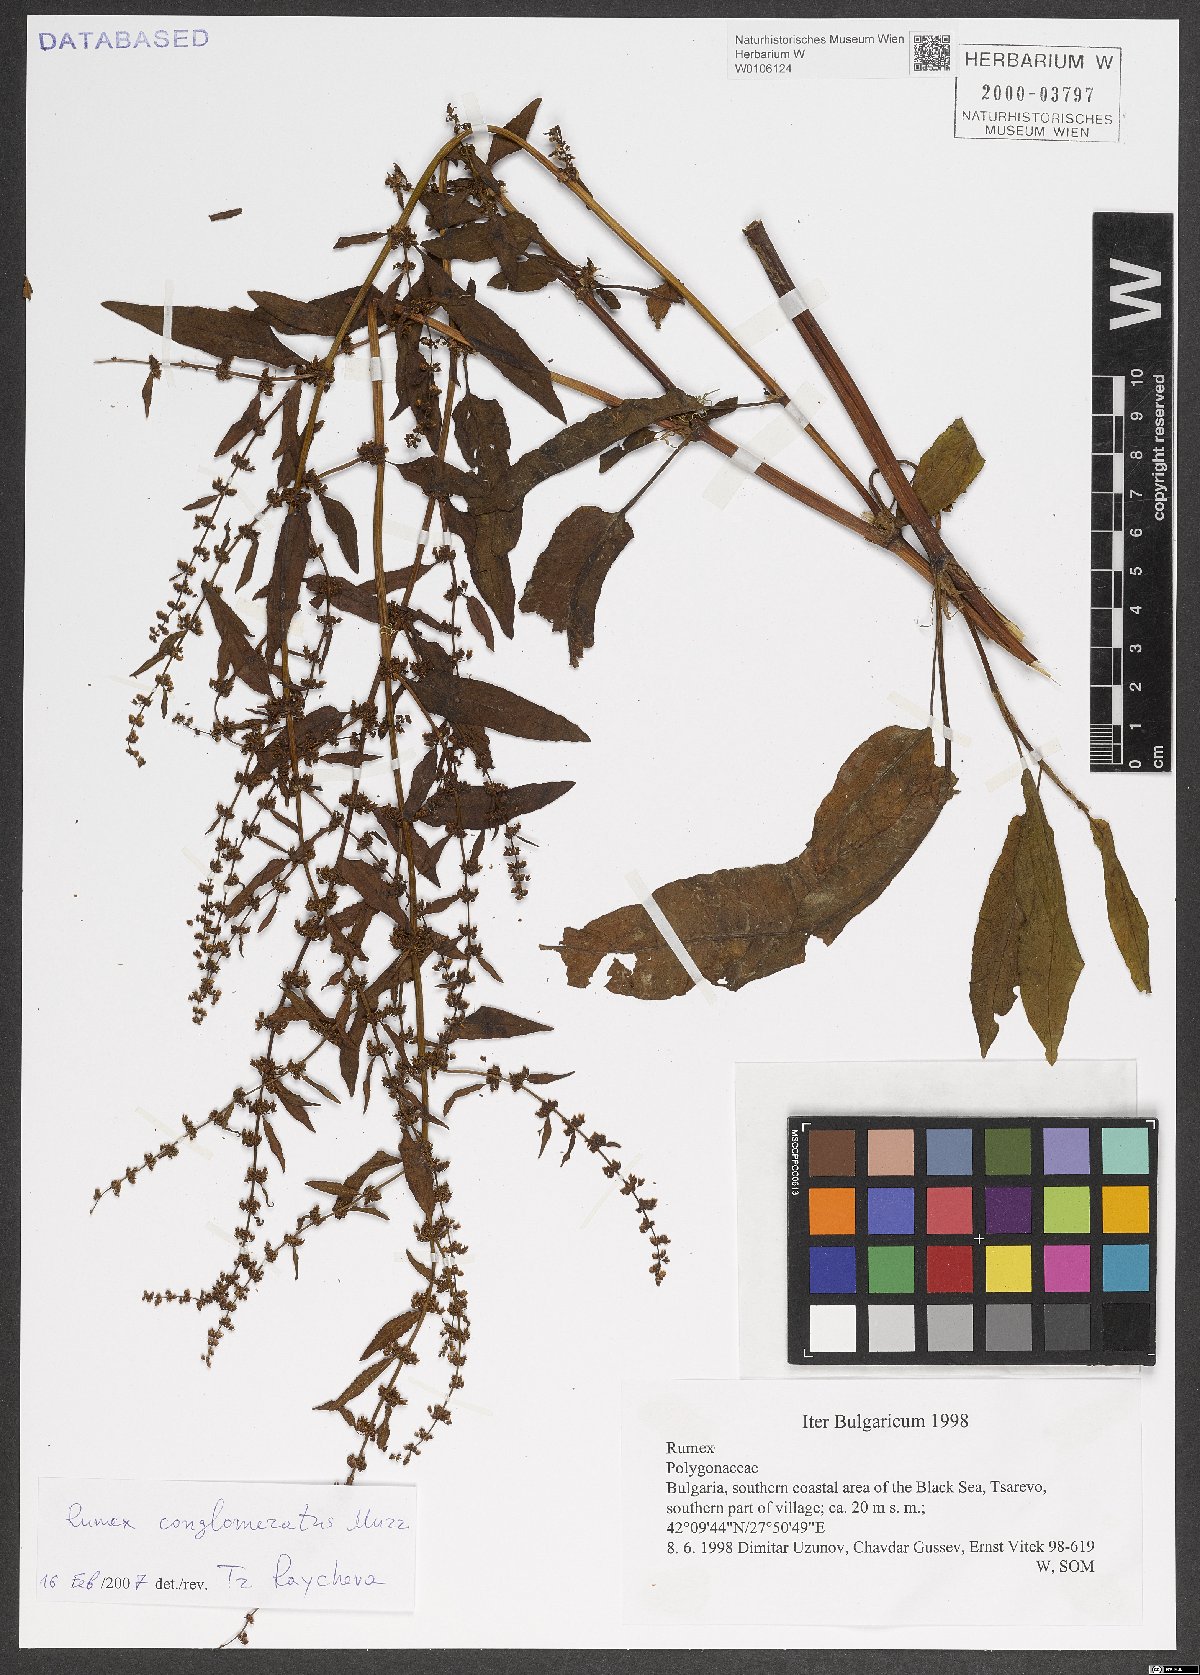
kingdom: Plantae
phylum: Tracheophyta
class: Magnoliopsida
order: Caryophyllales
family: Polygonaceae
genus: Rumex
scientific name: Rumex conglomeratus
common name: Clustered dock
